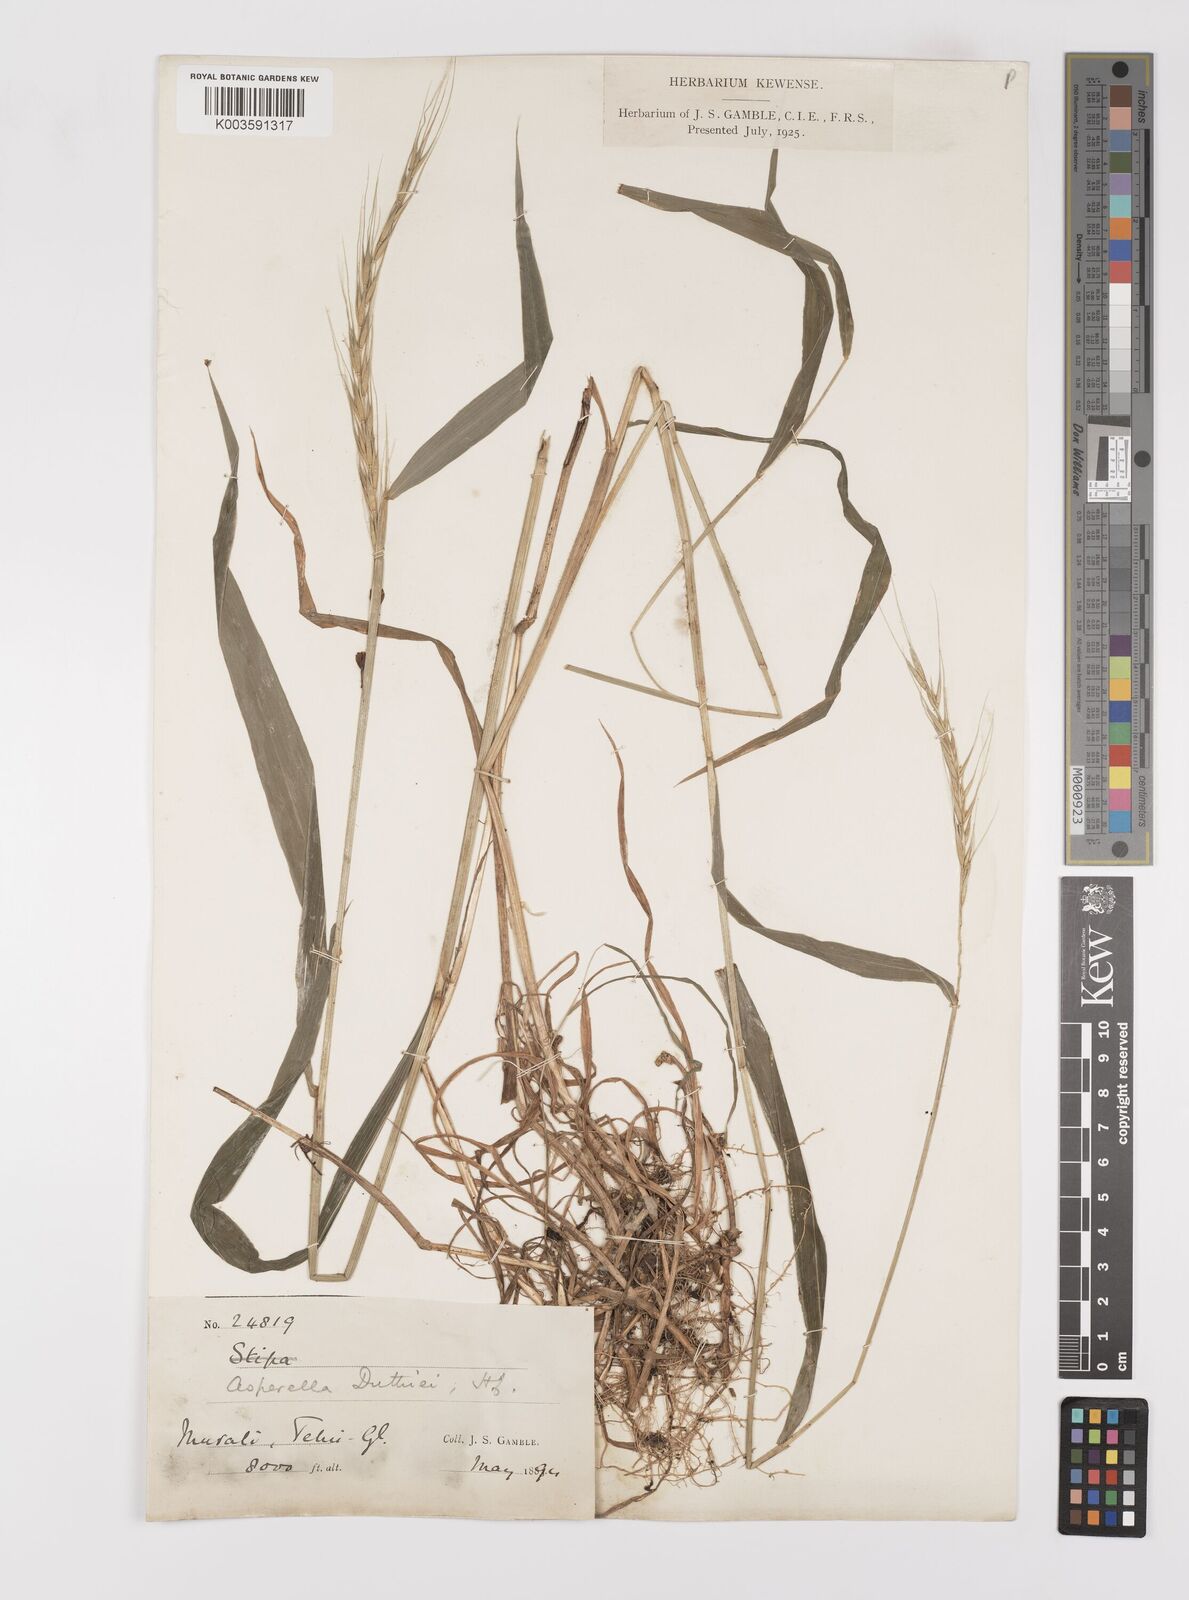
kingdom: Plantae
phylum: Tracheophyta
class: Liliopsida
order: Poales
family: Poaceae
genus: Leymus
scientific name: Leymus duthiei
